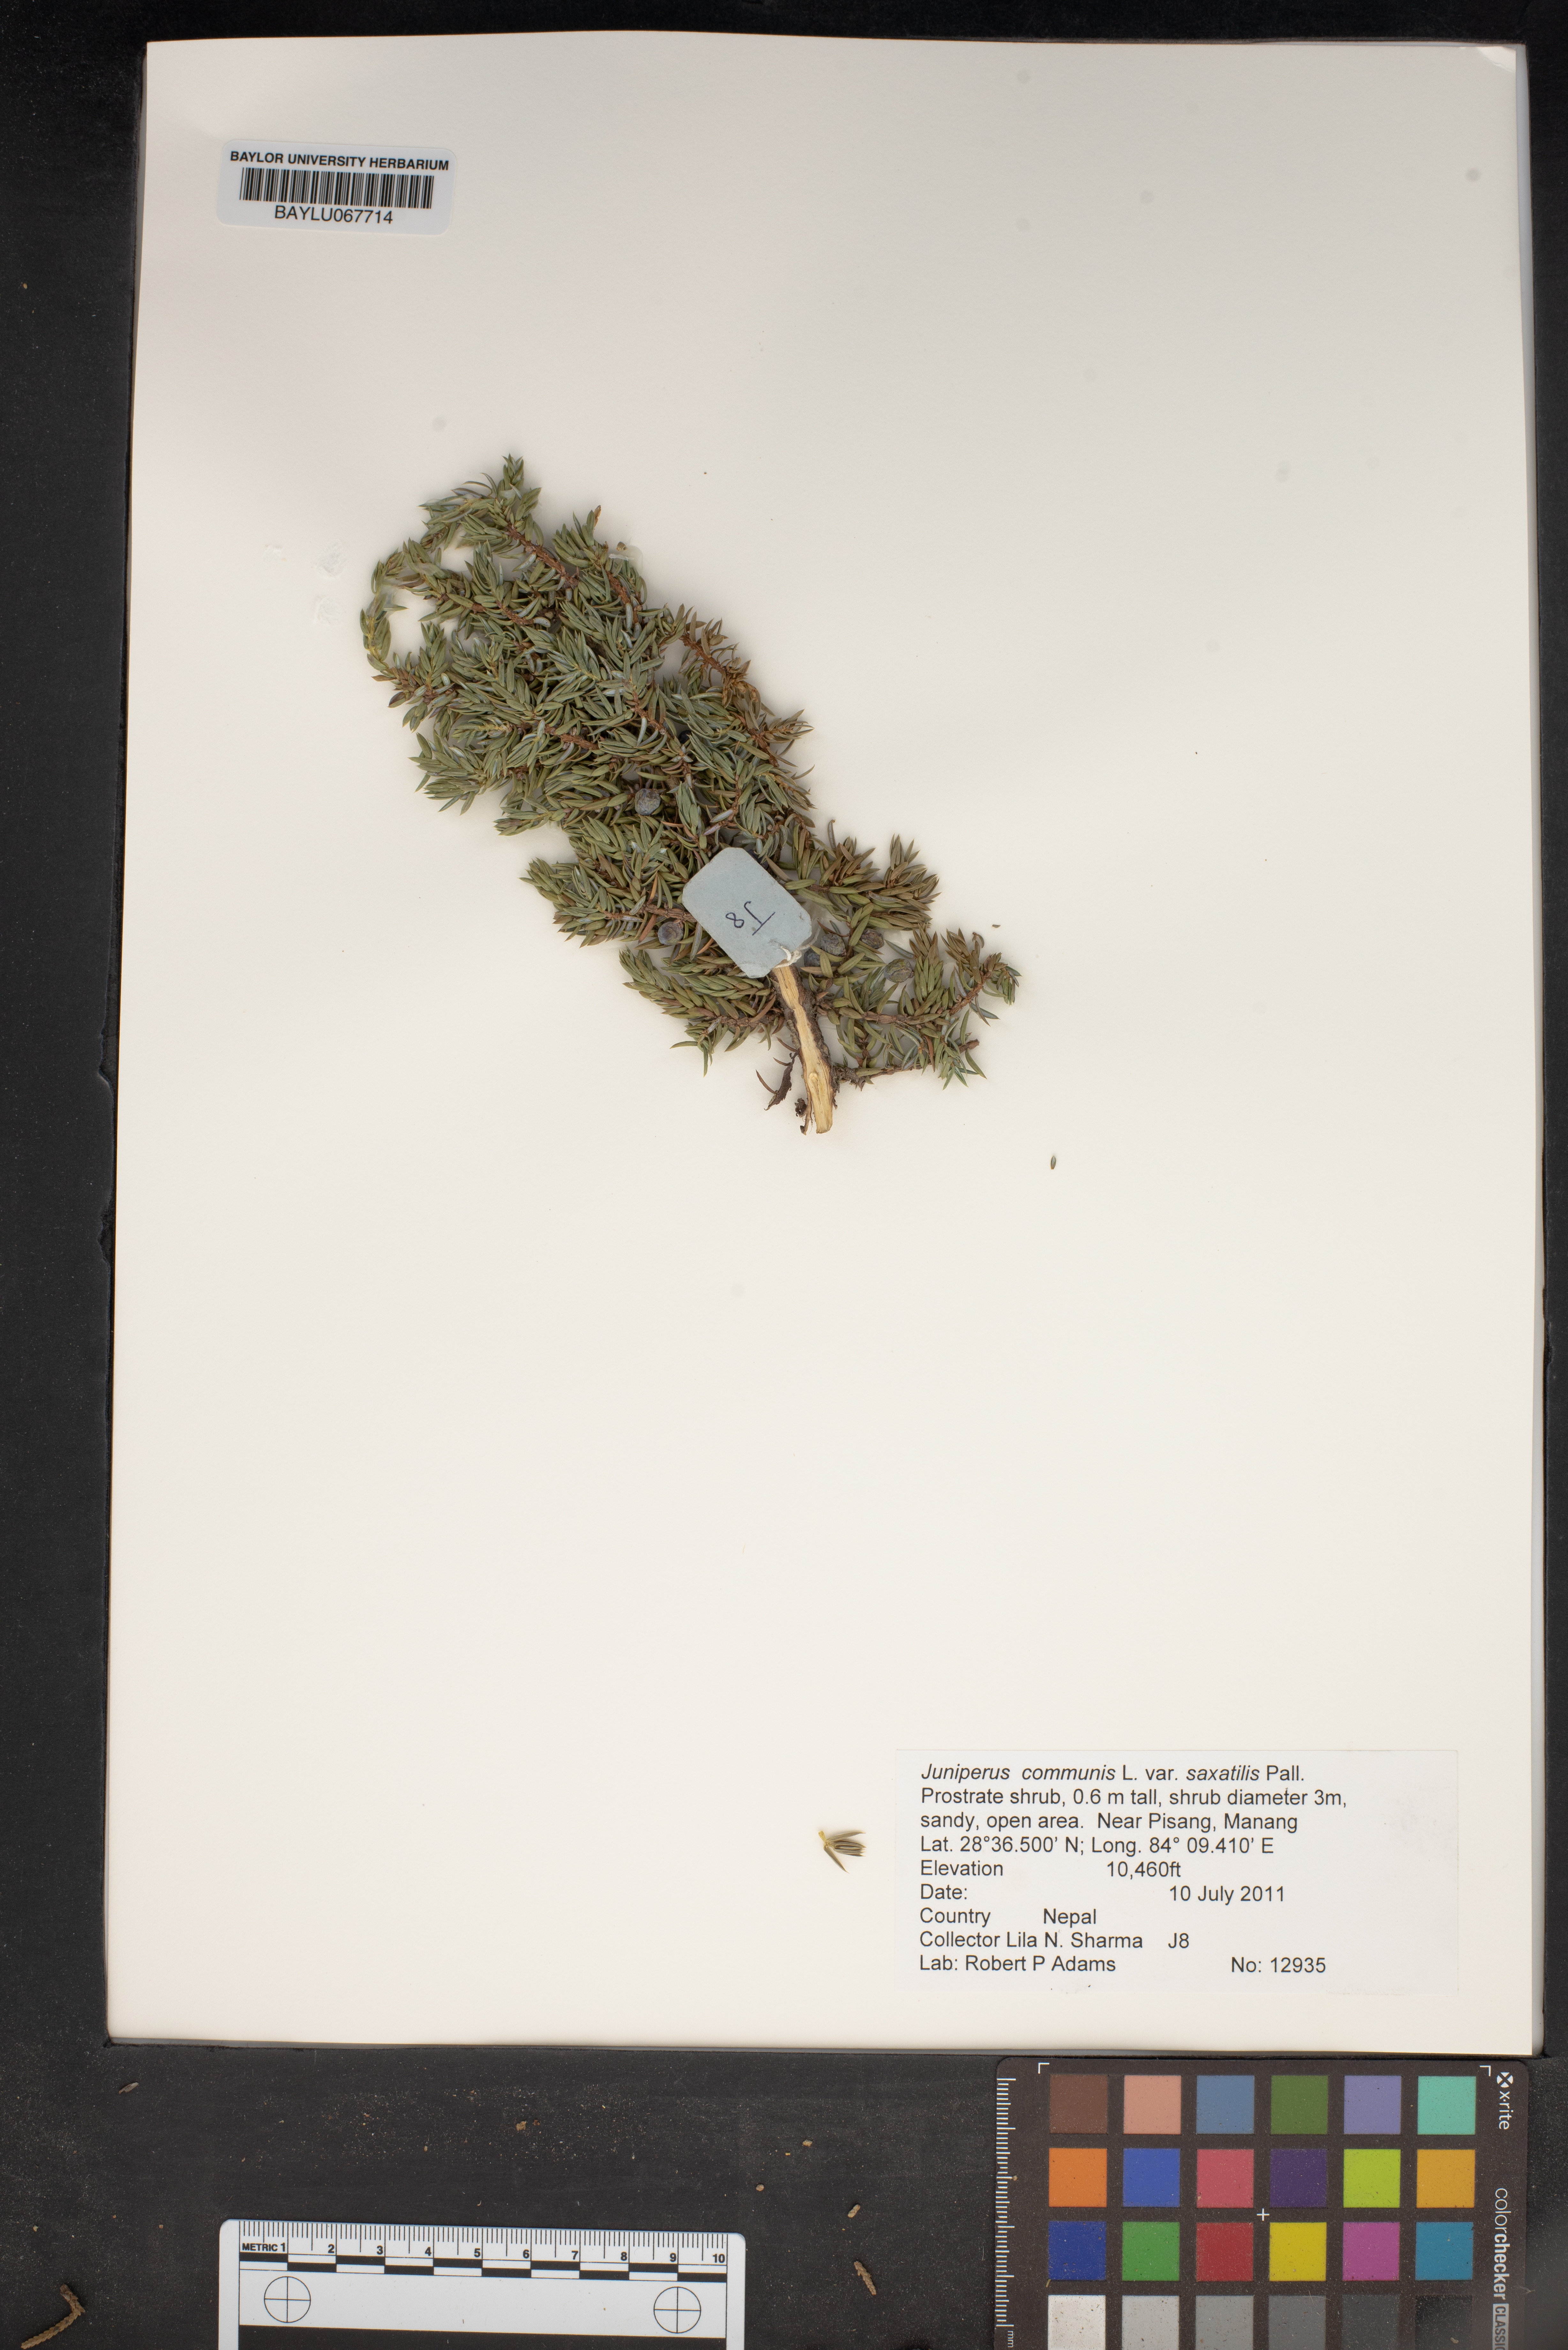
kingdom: Plantae
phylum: Tracheophyta
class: Pinopsida
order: Pinales
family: Cupressaceae
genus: Juniperus
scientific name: Juniperus communis
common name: Common juniper
